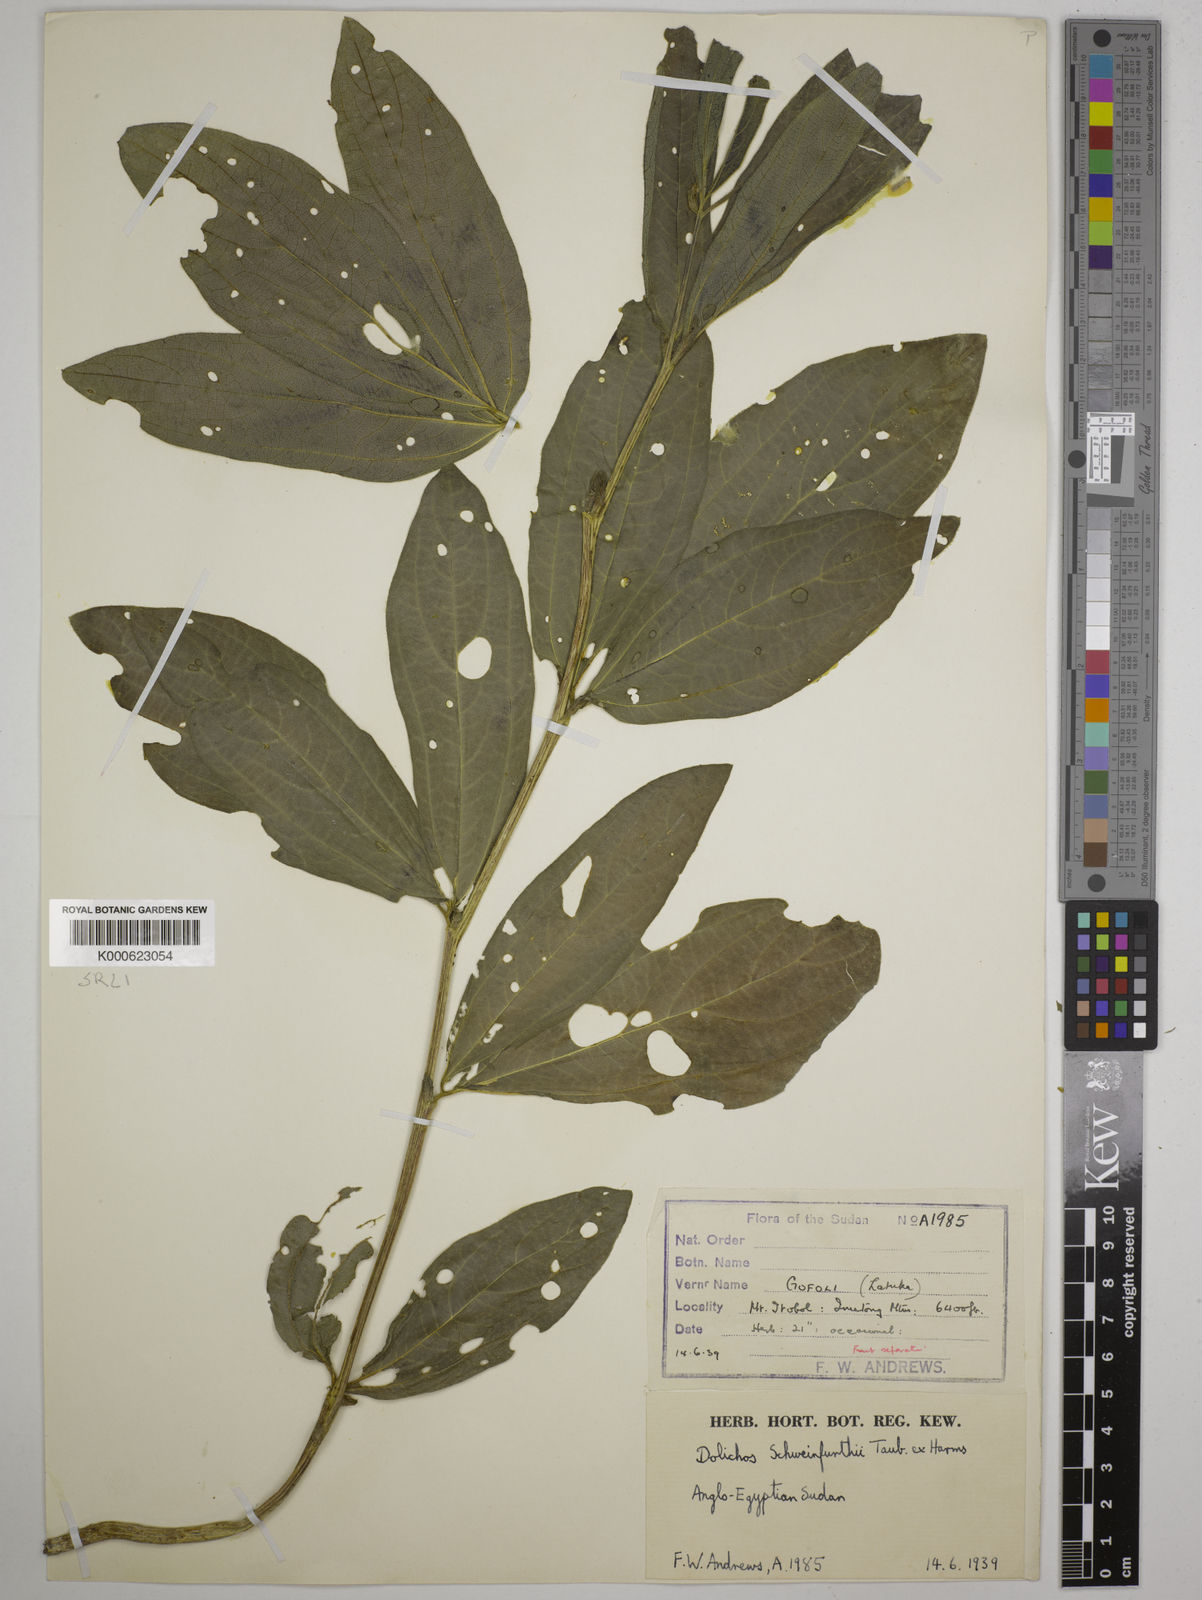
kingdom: Plantae
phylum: Tracheophyta
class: Magnoliopsida
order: Fabales
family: Fabaceae
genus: Dolichos
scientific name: Dolichos
